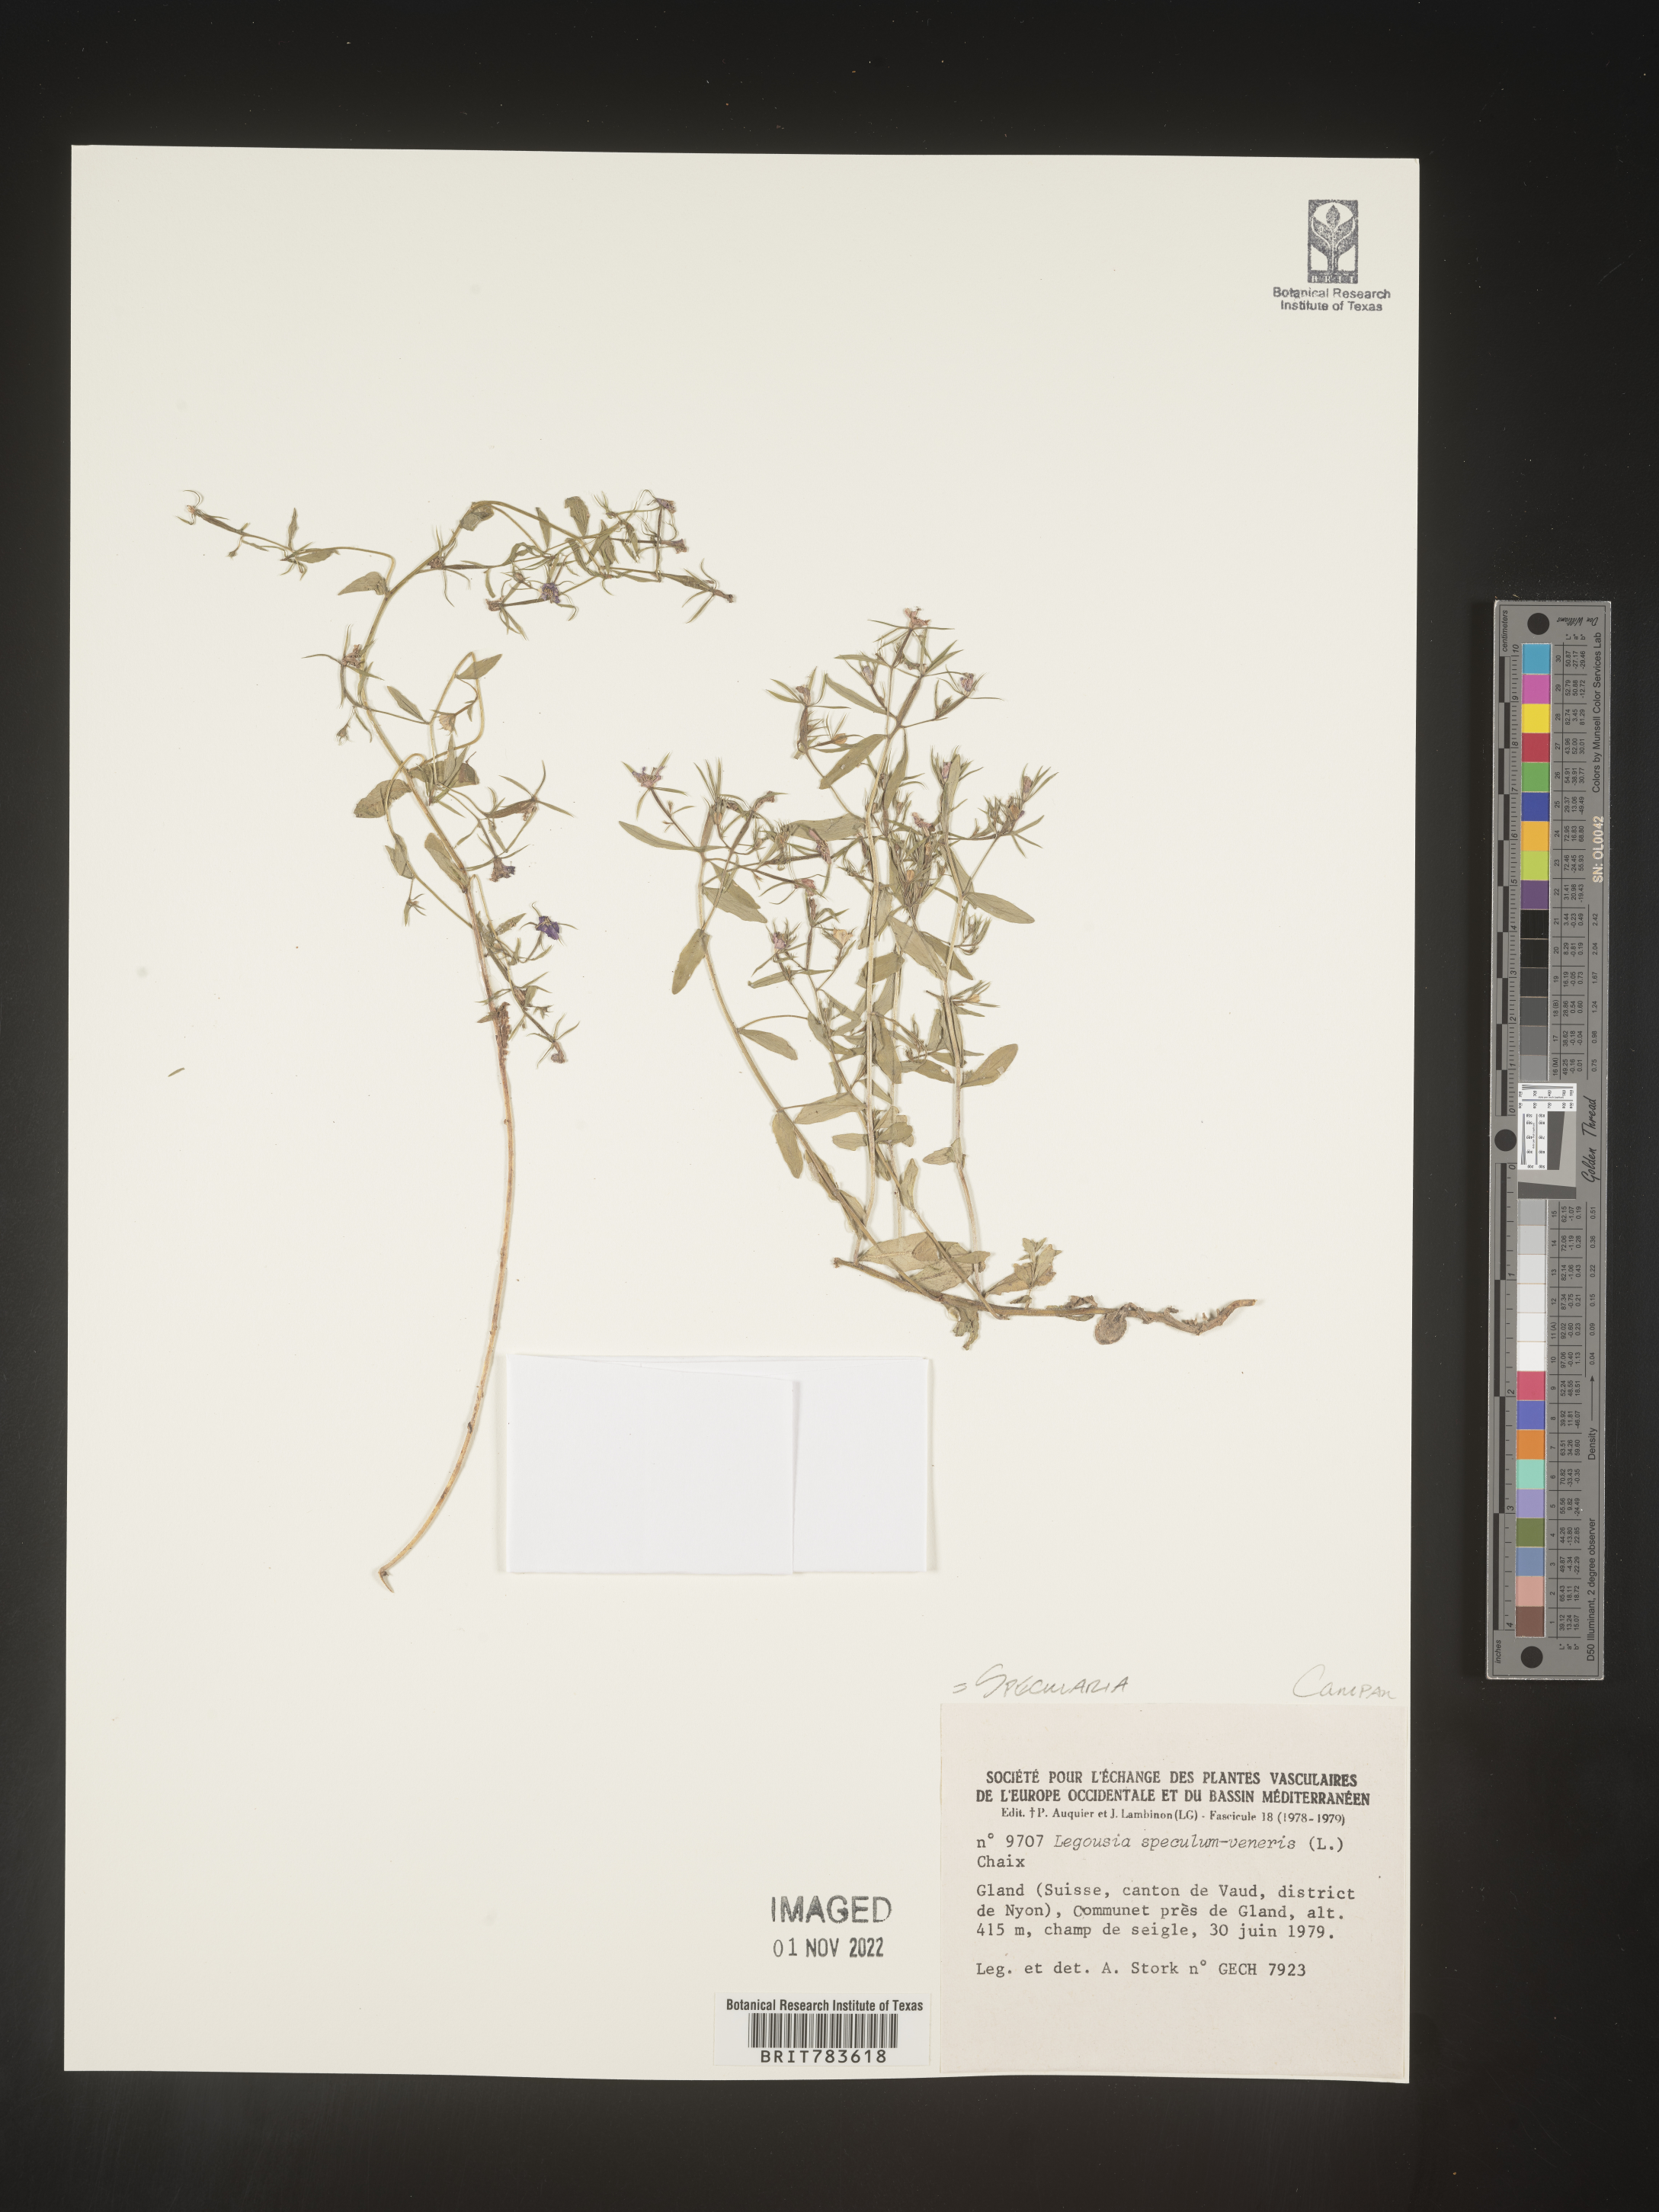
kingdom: Plantae
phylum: Tracheophyta
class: Magnoliopsida
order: Asterales
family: Campanulaceae
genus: Specularia
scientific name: Specularia
